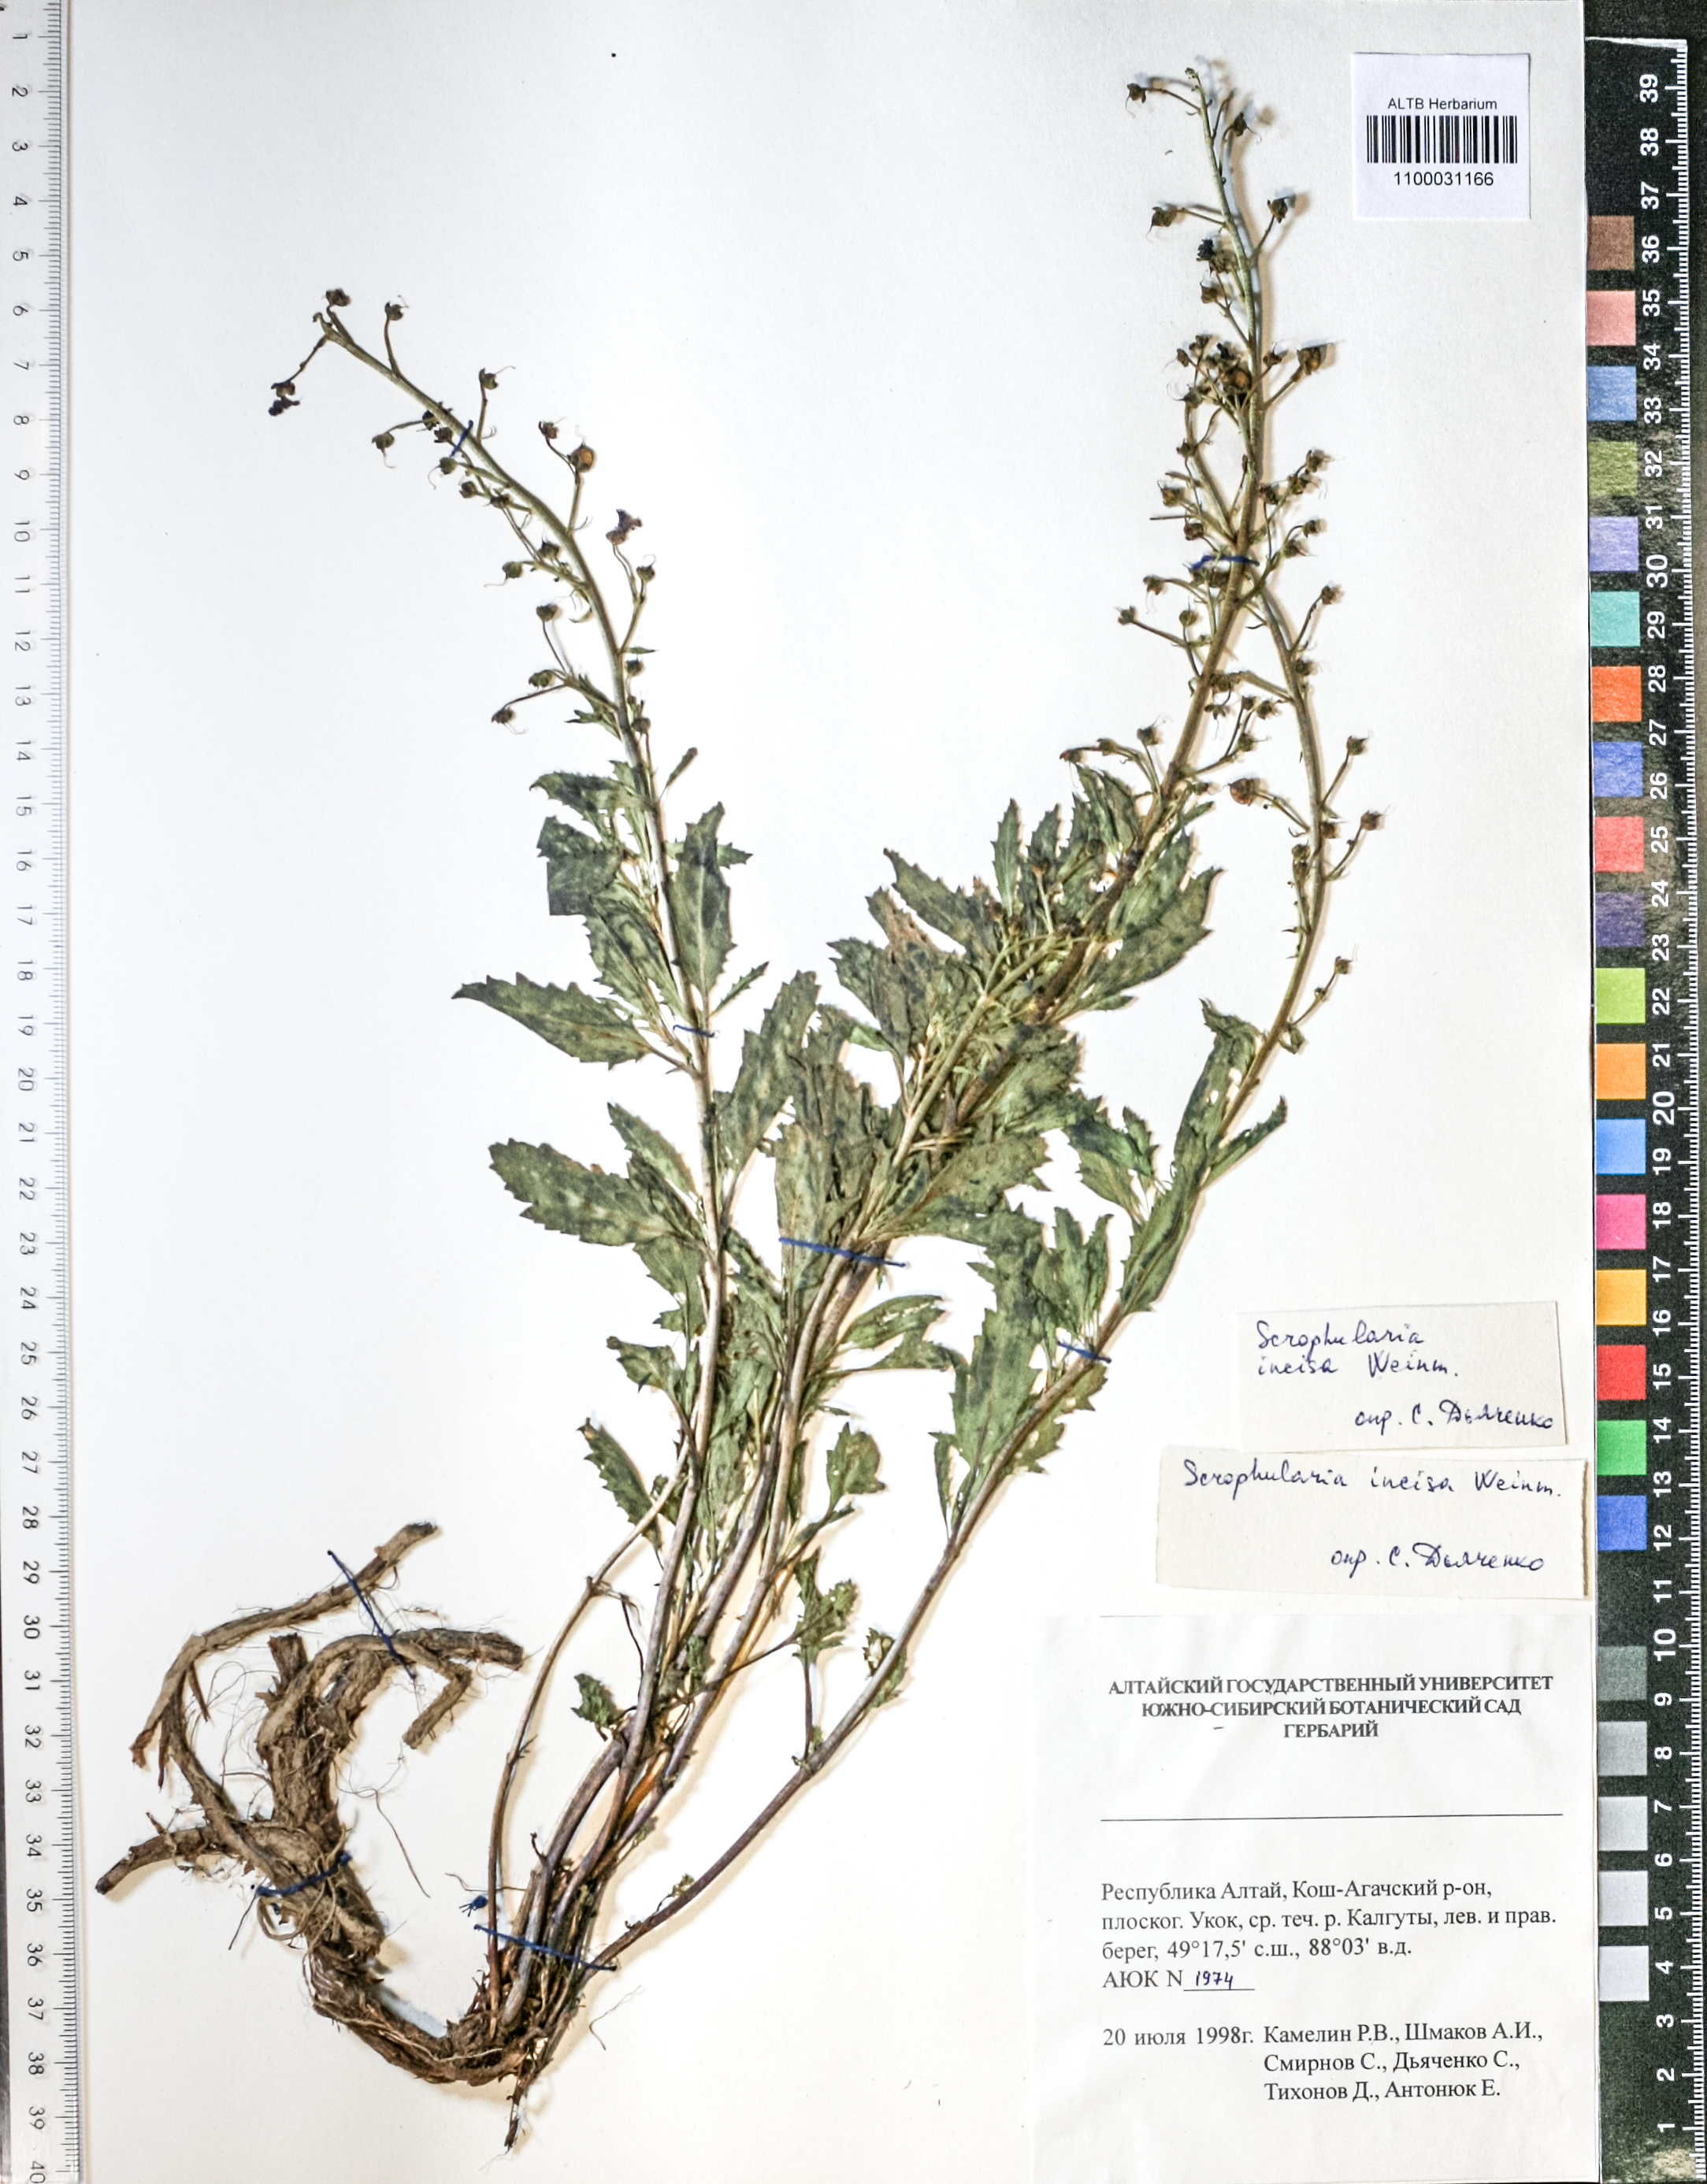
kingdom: Plantae
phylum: Tracheophyta
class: Magnoliopsida
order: Lamiales
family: Scrophulariaceae
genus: Scrophularia
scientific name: Scrophularia incisa
